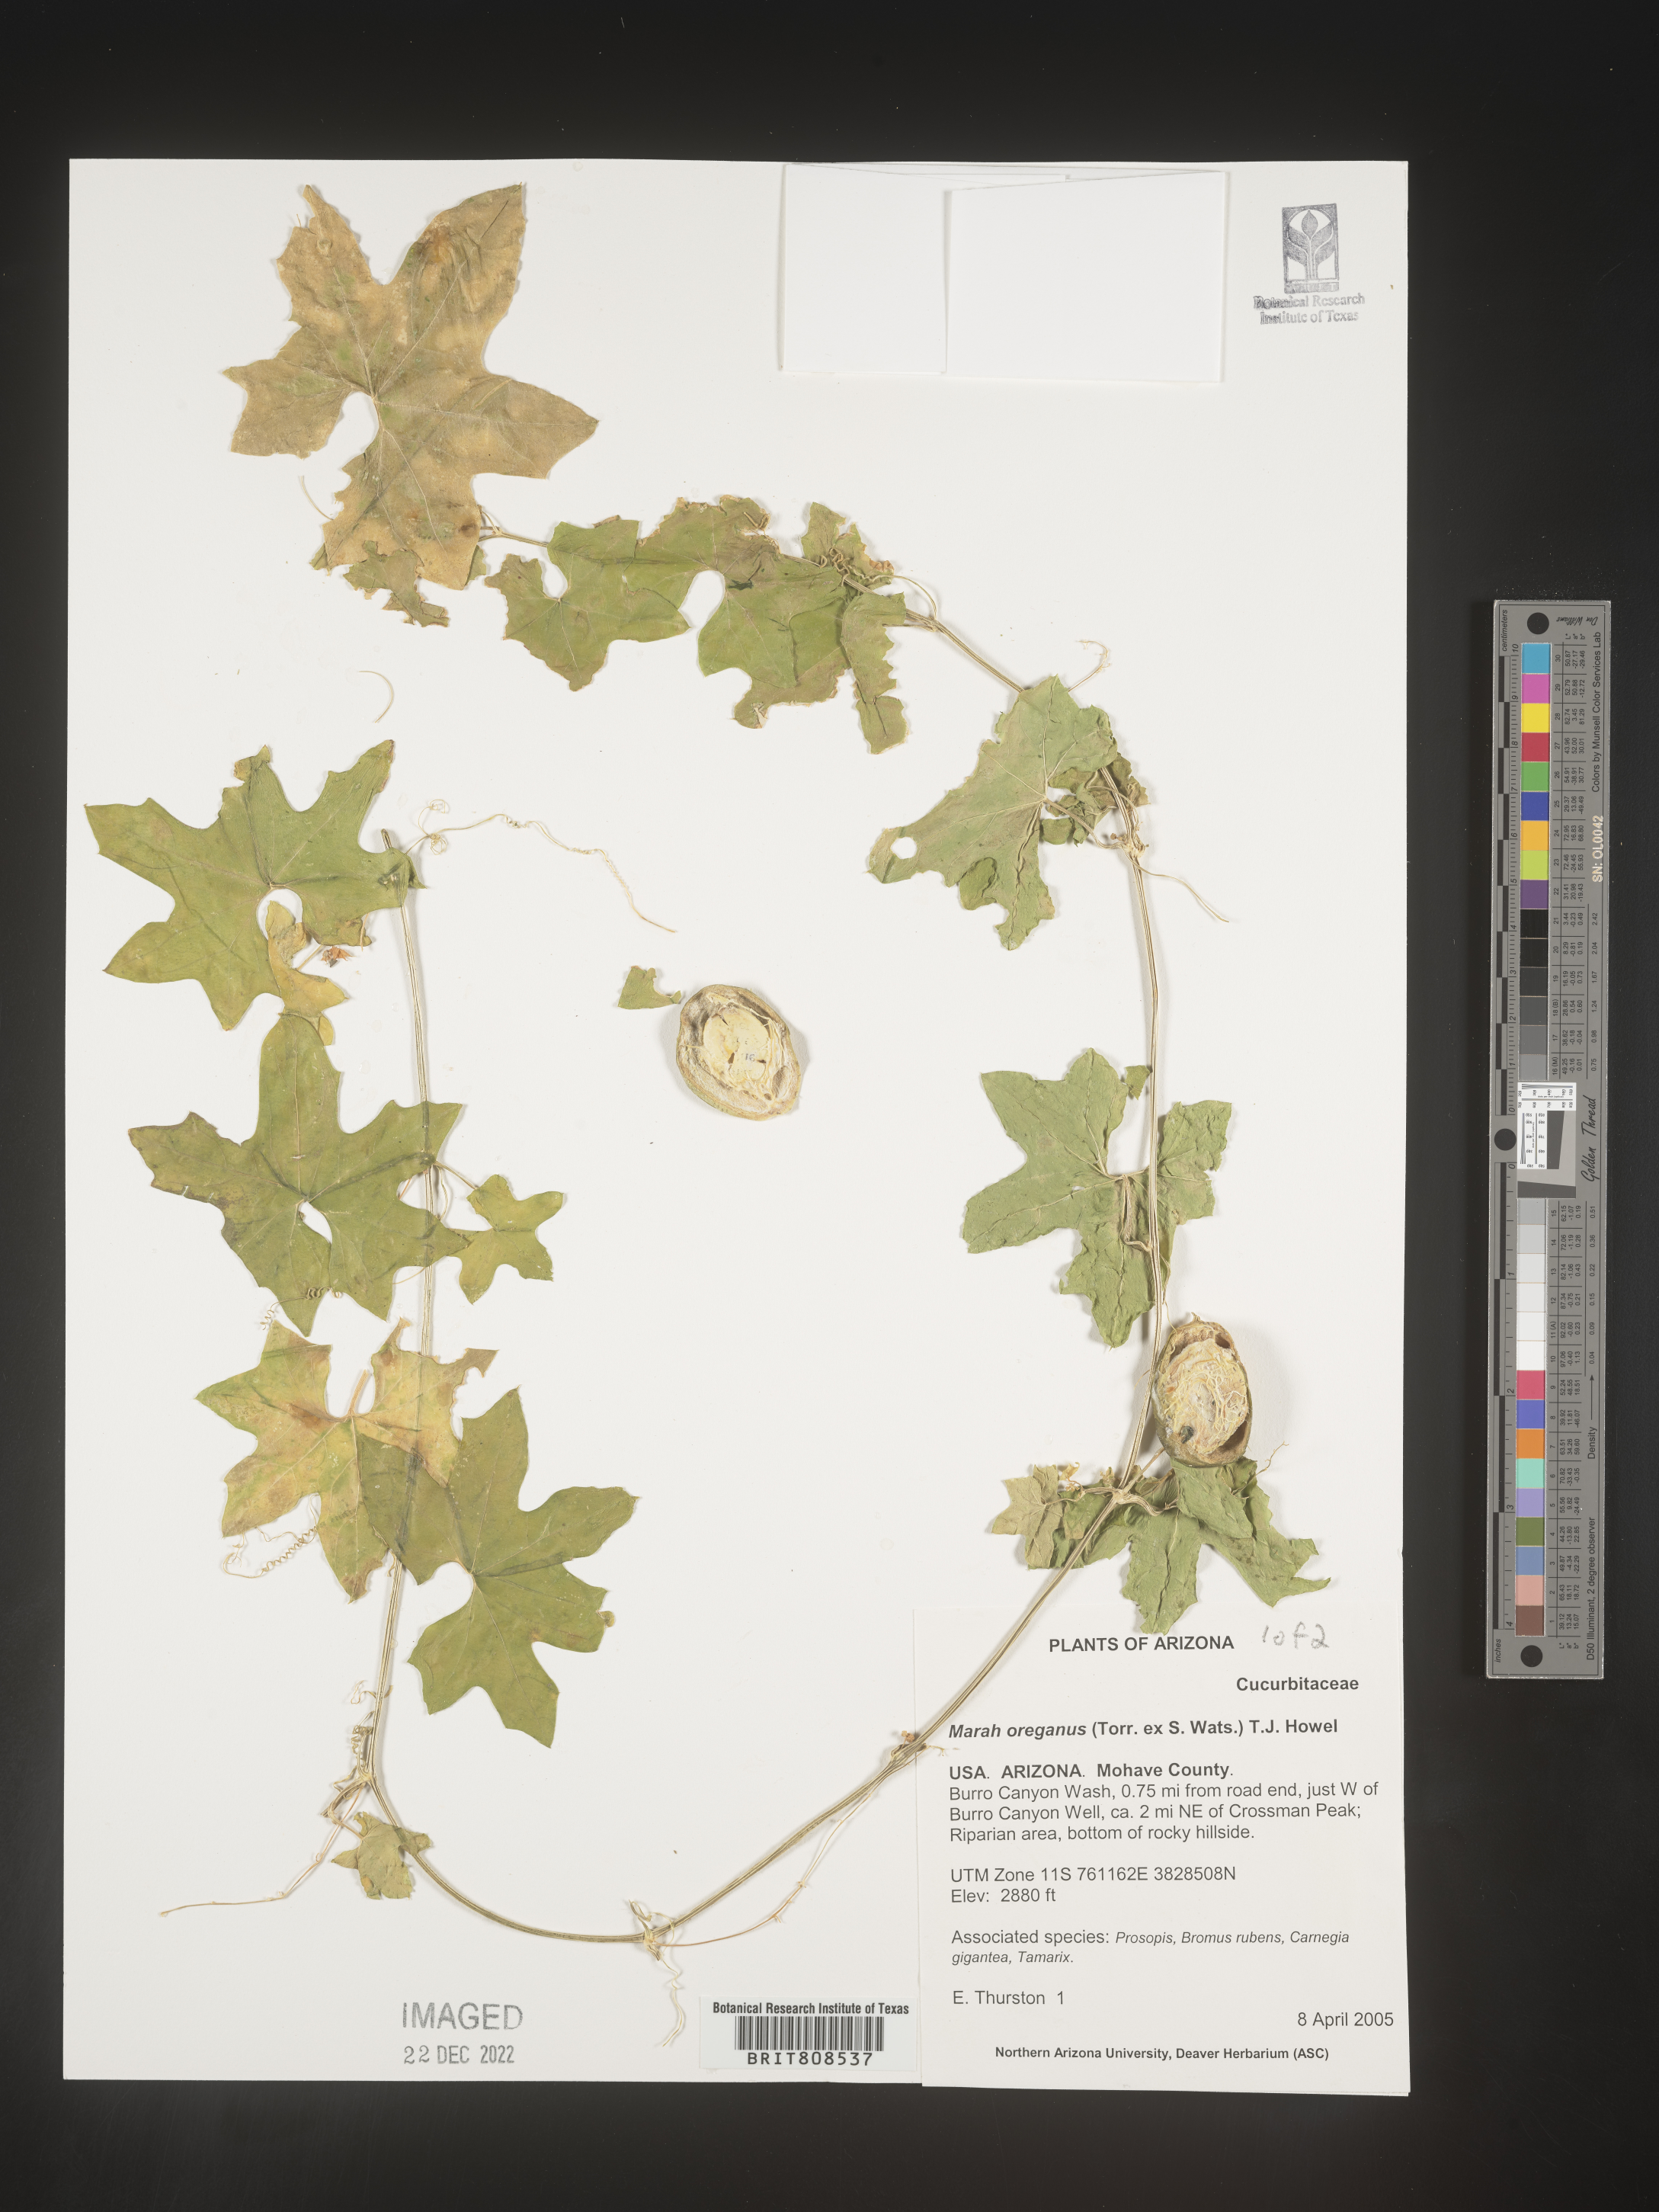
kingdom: Plantae
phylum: Tracheophyta
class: Magnoliopsida
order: Cucurbitales
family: Cucurbitaceae
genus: Marah
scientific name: Marah
